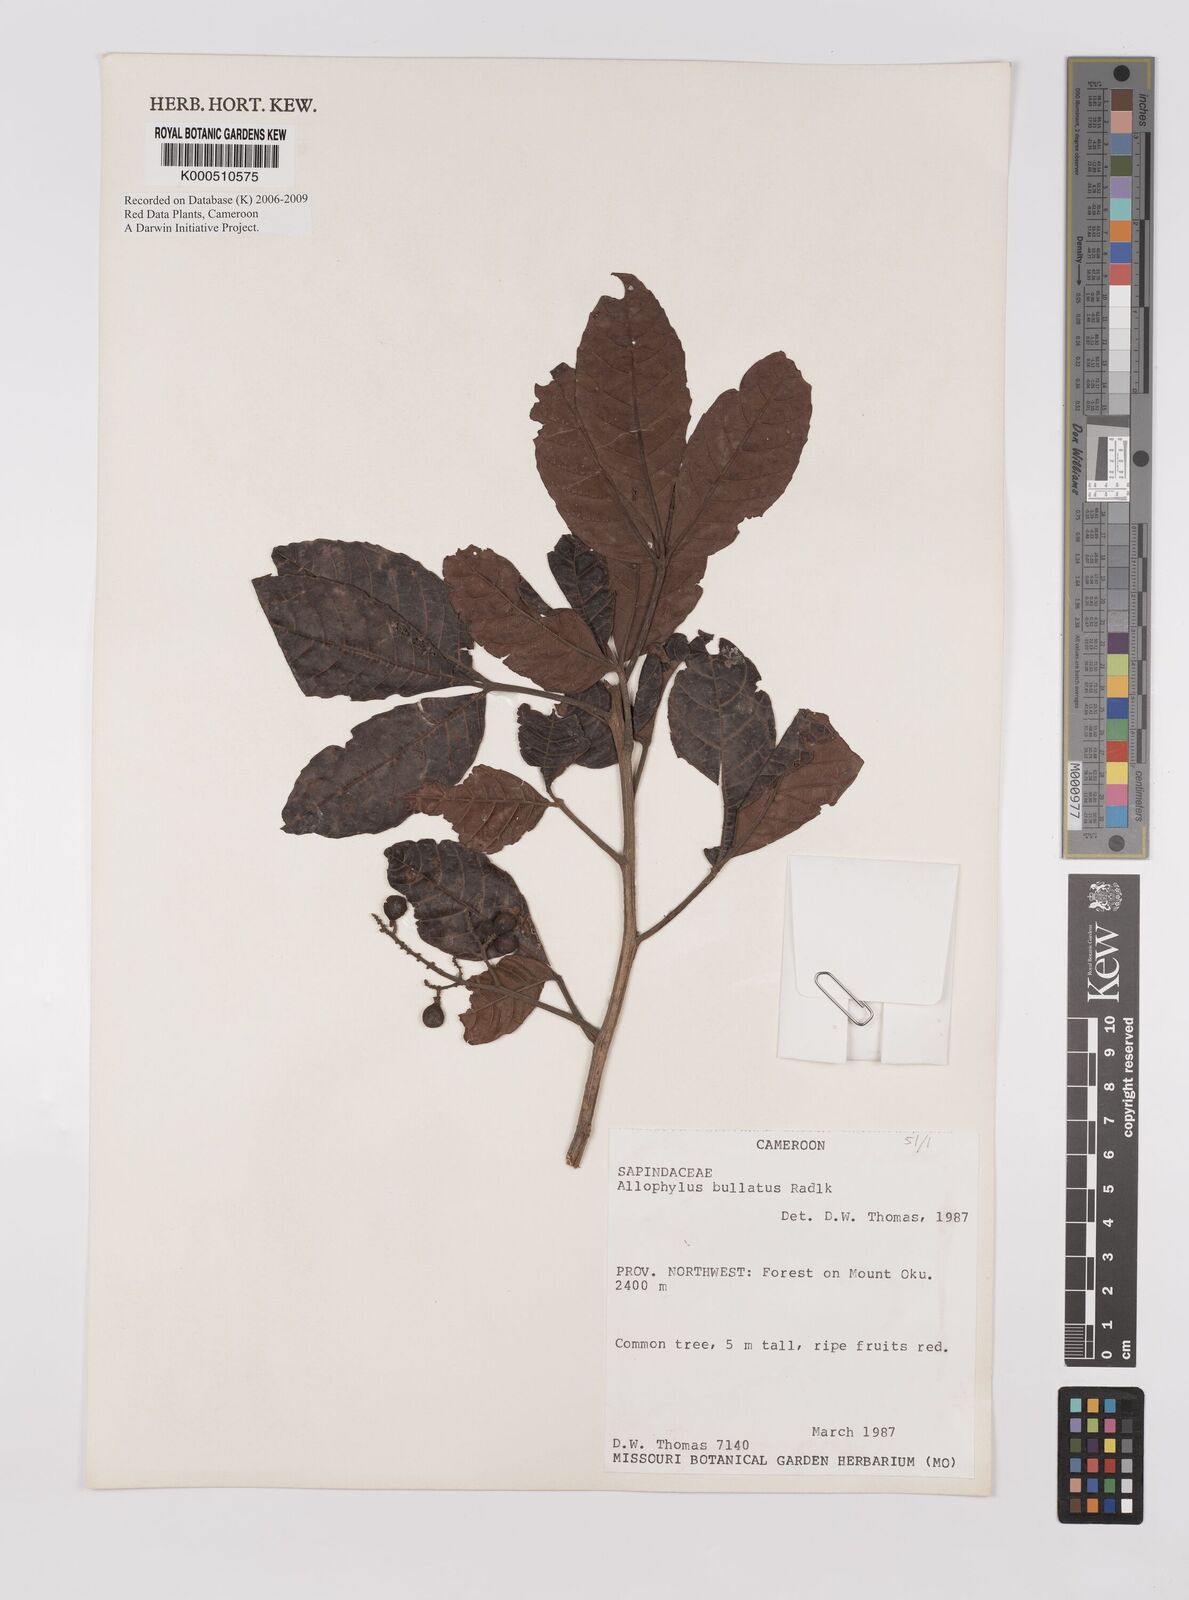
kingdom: Plantae
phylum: Tracheophyta
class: Magnoliopsida
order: Sapindales
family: Sapindaceae
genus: Allophylus
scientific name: Allophylus bullatus
